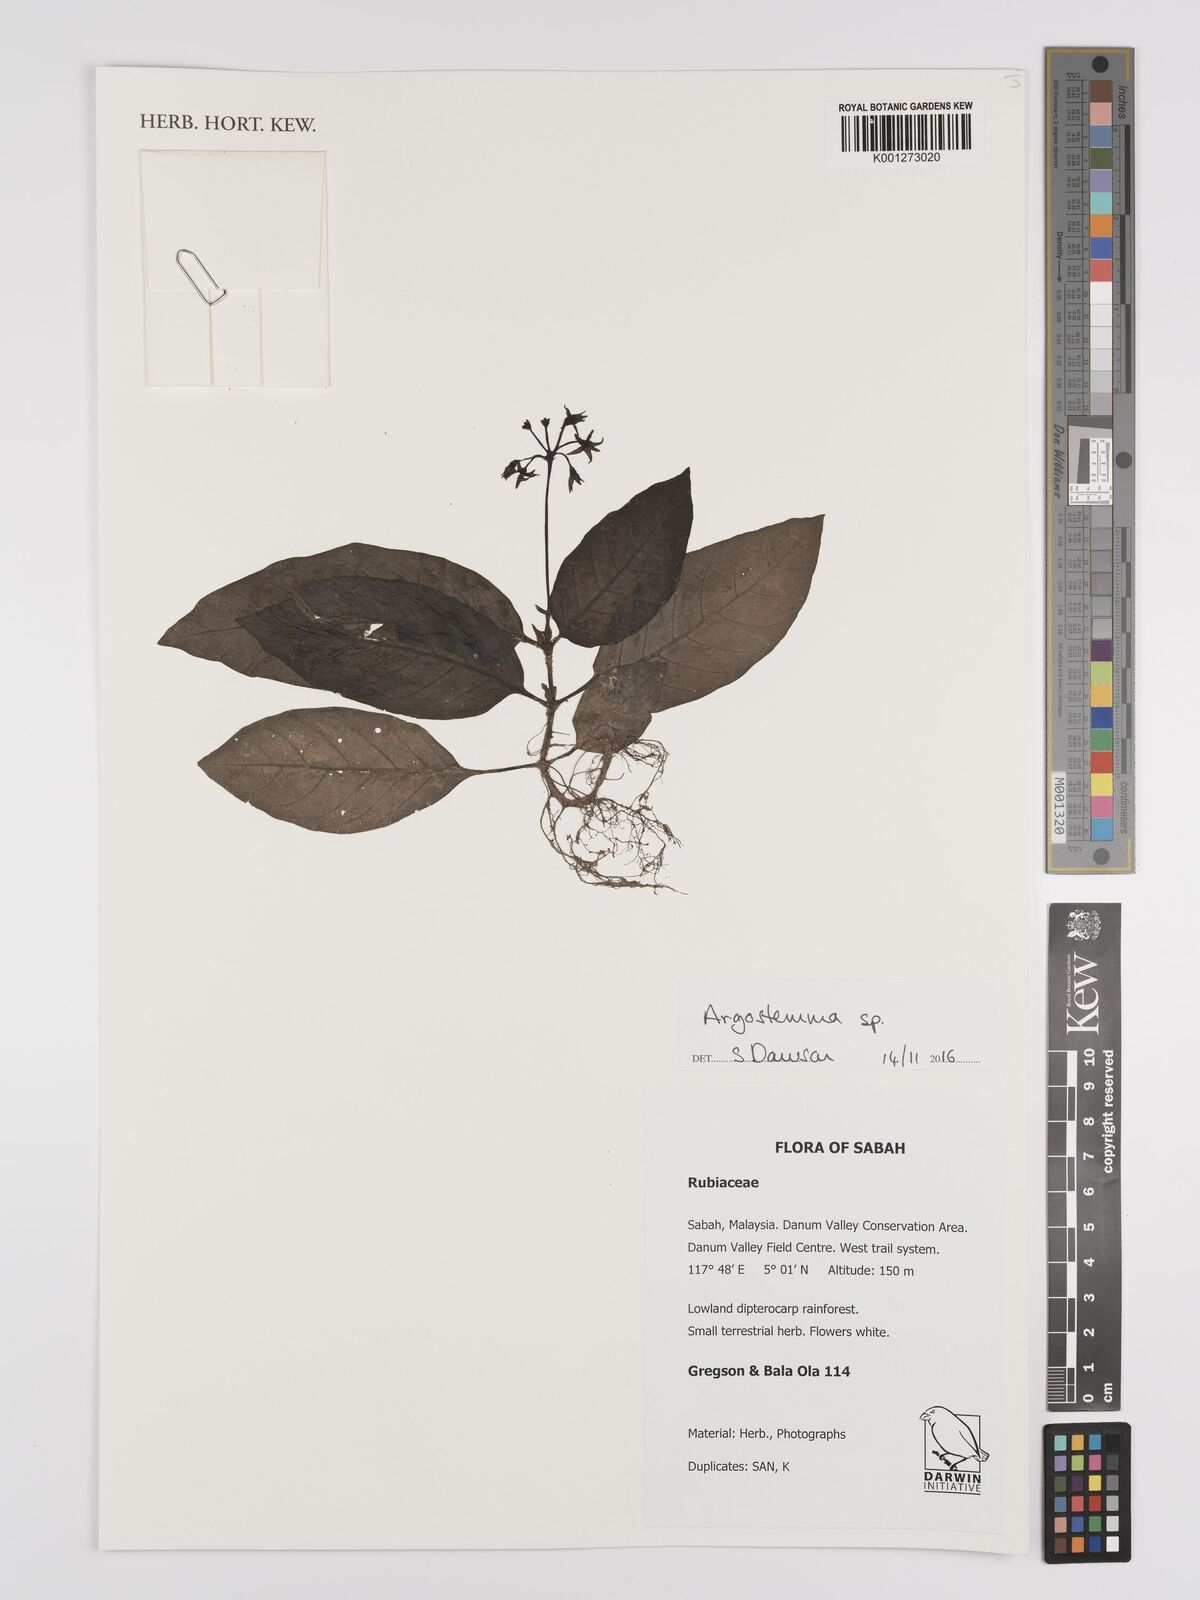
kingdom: Plantae
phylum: Tracheophyta
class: Magnoliopsida
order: Gentianales
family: Rubiaceae
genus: Argostemma
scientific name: Argostemma
